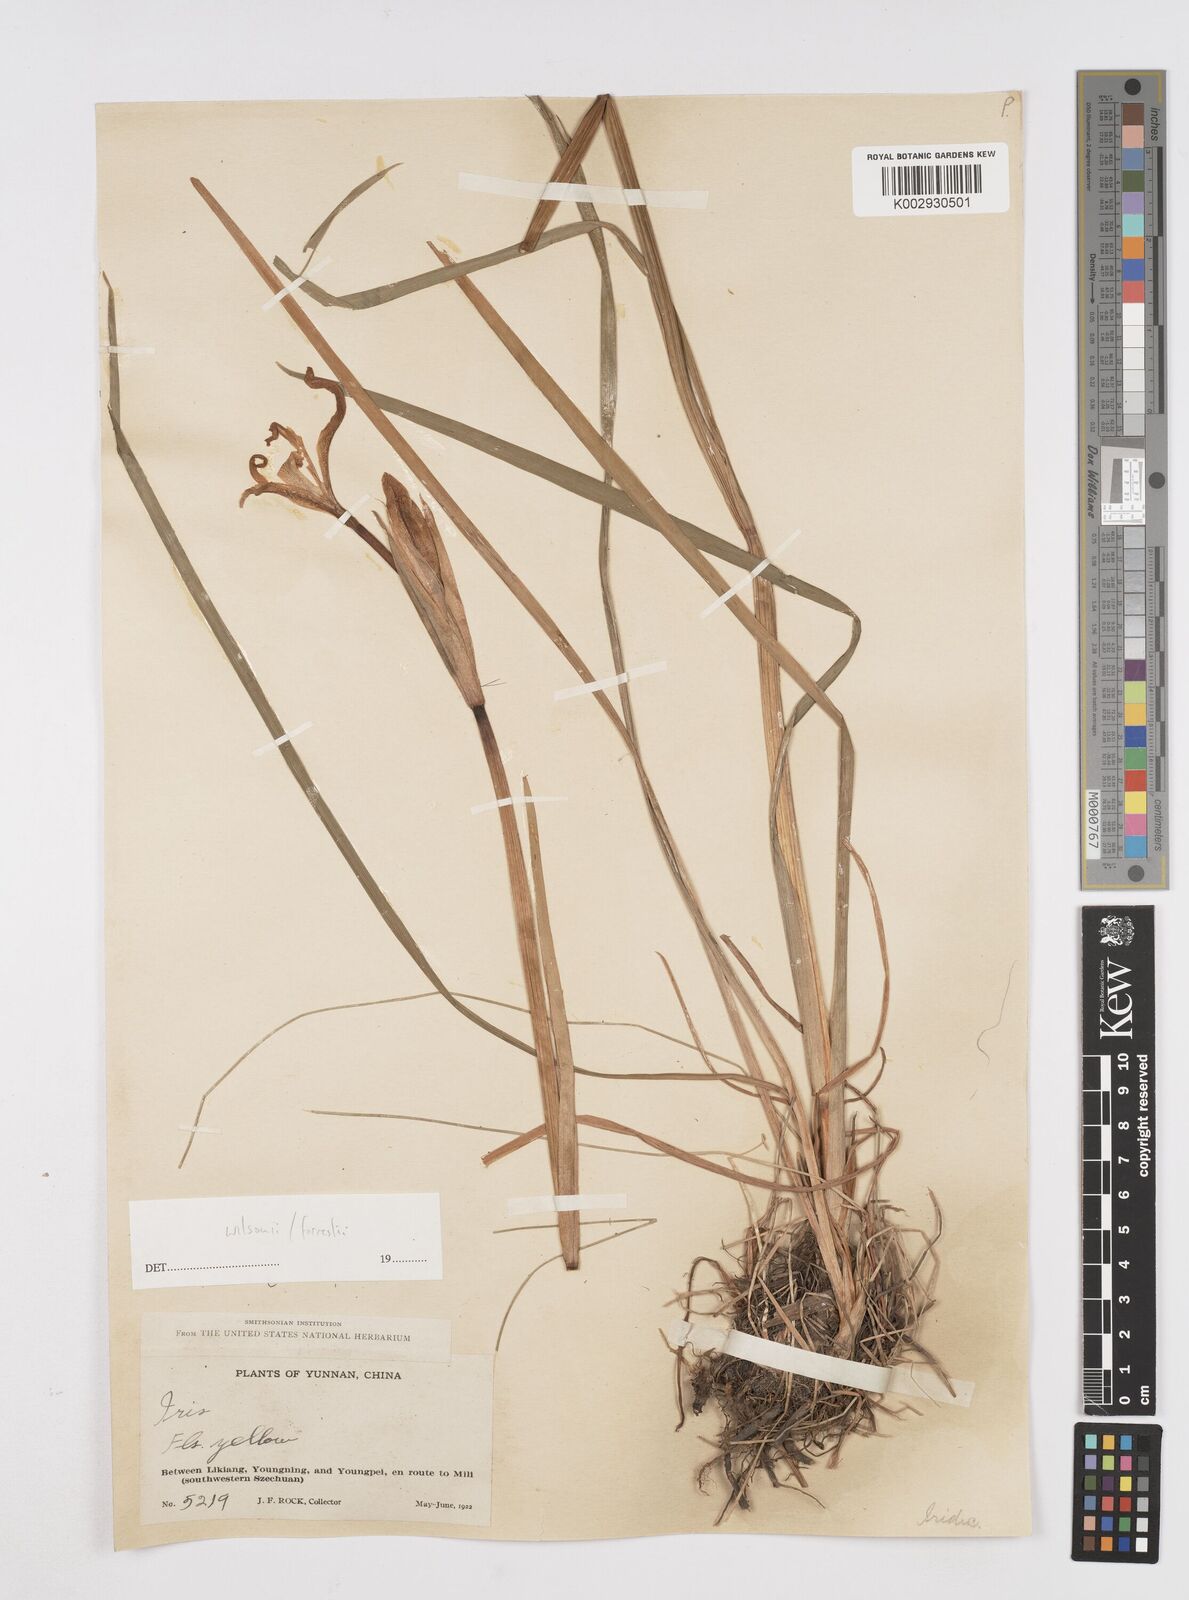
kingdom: Plantae
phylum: Tracheophyta
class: Liliopsida
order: Asparagales
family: Iridaceae
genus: Iris
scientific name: Iris wilsonii
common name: Yellow-flower iris
